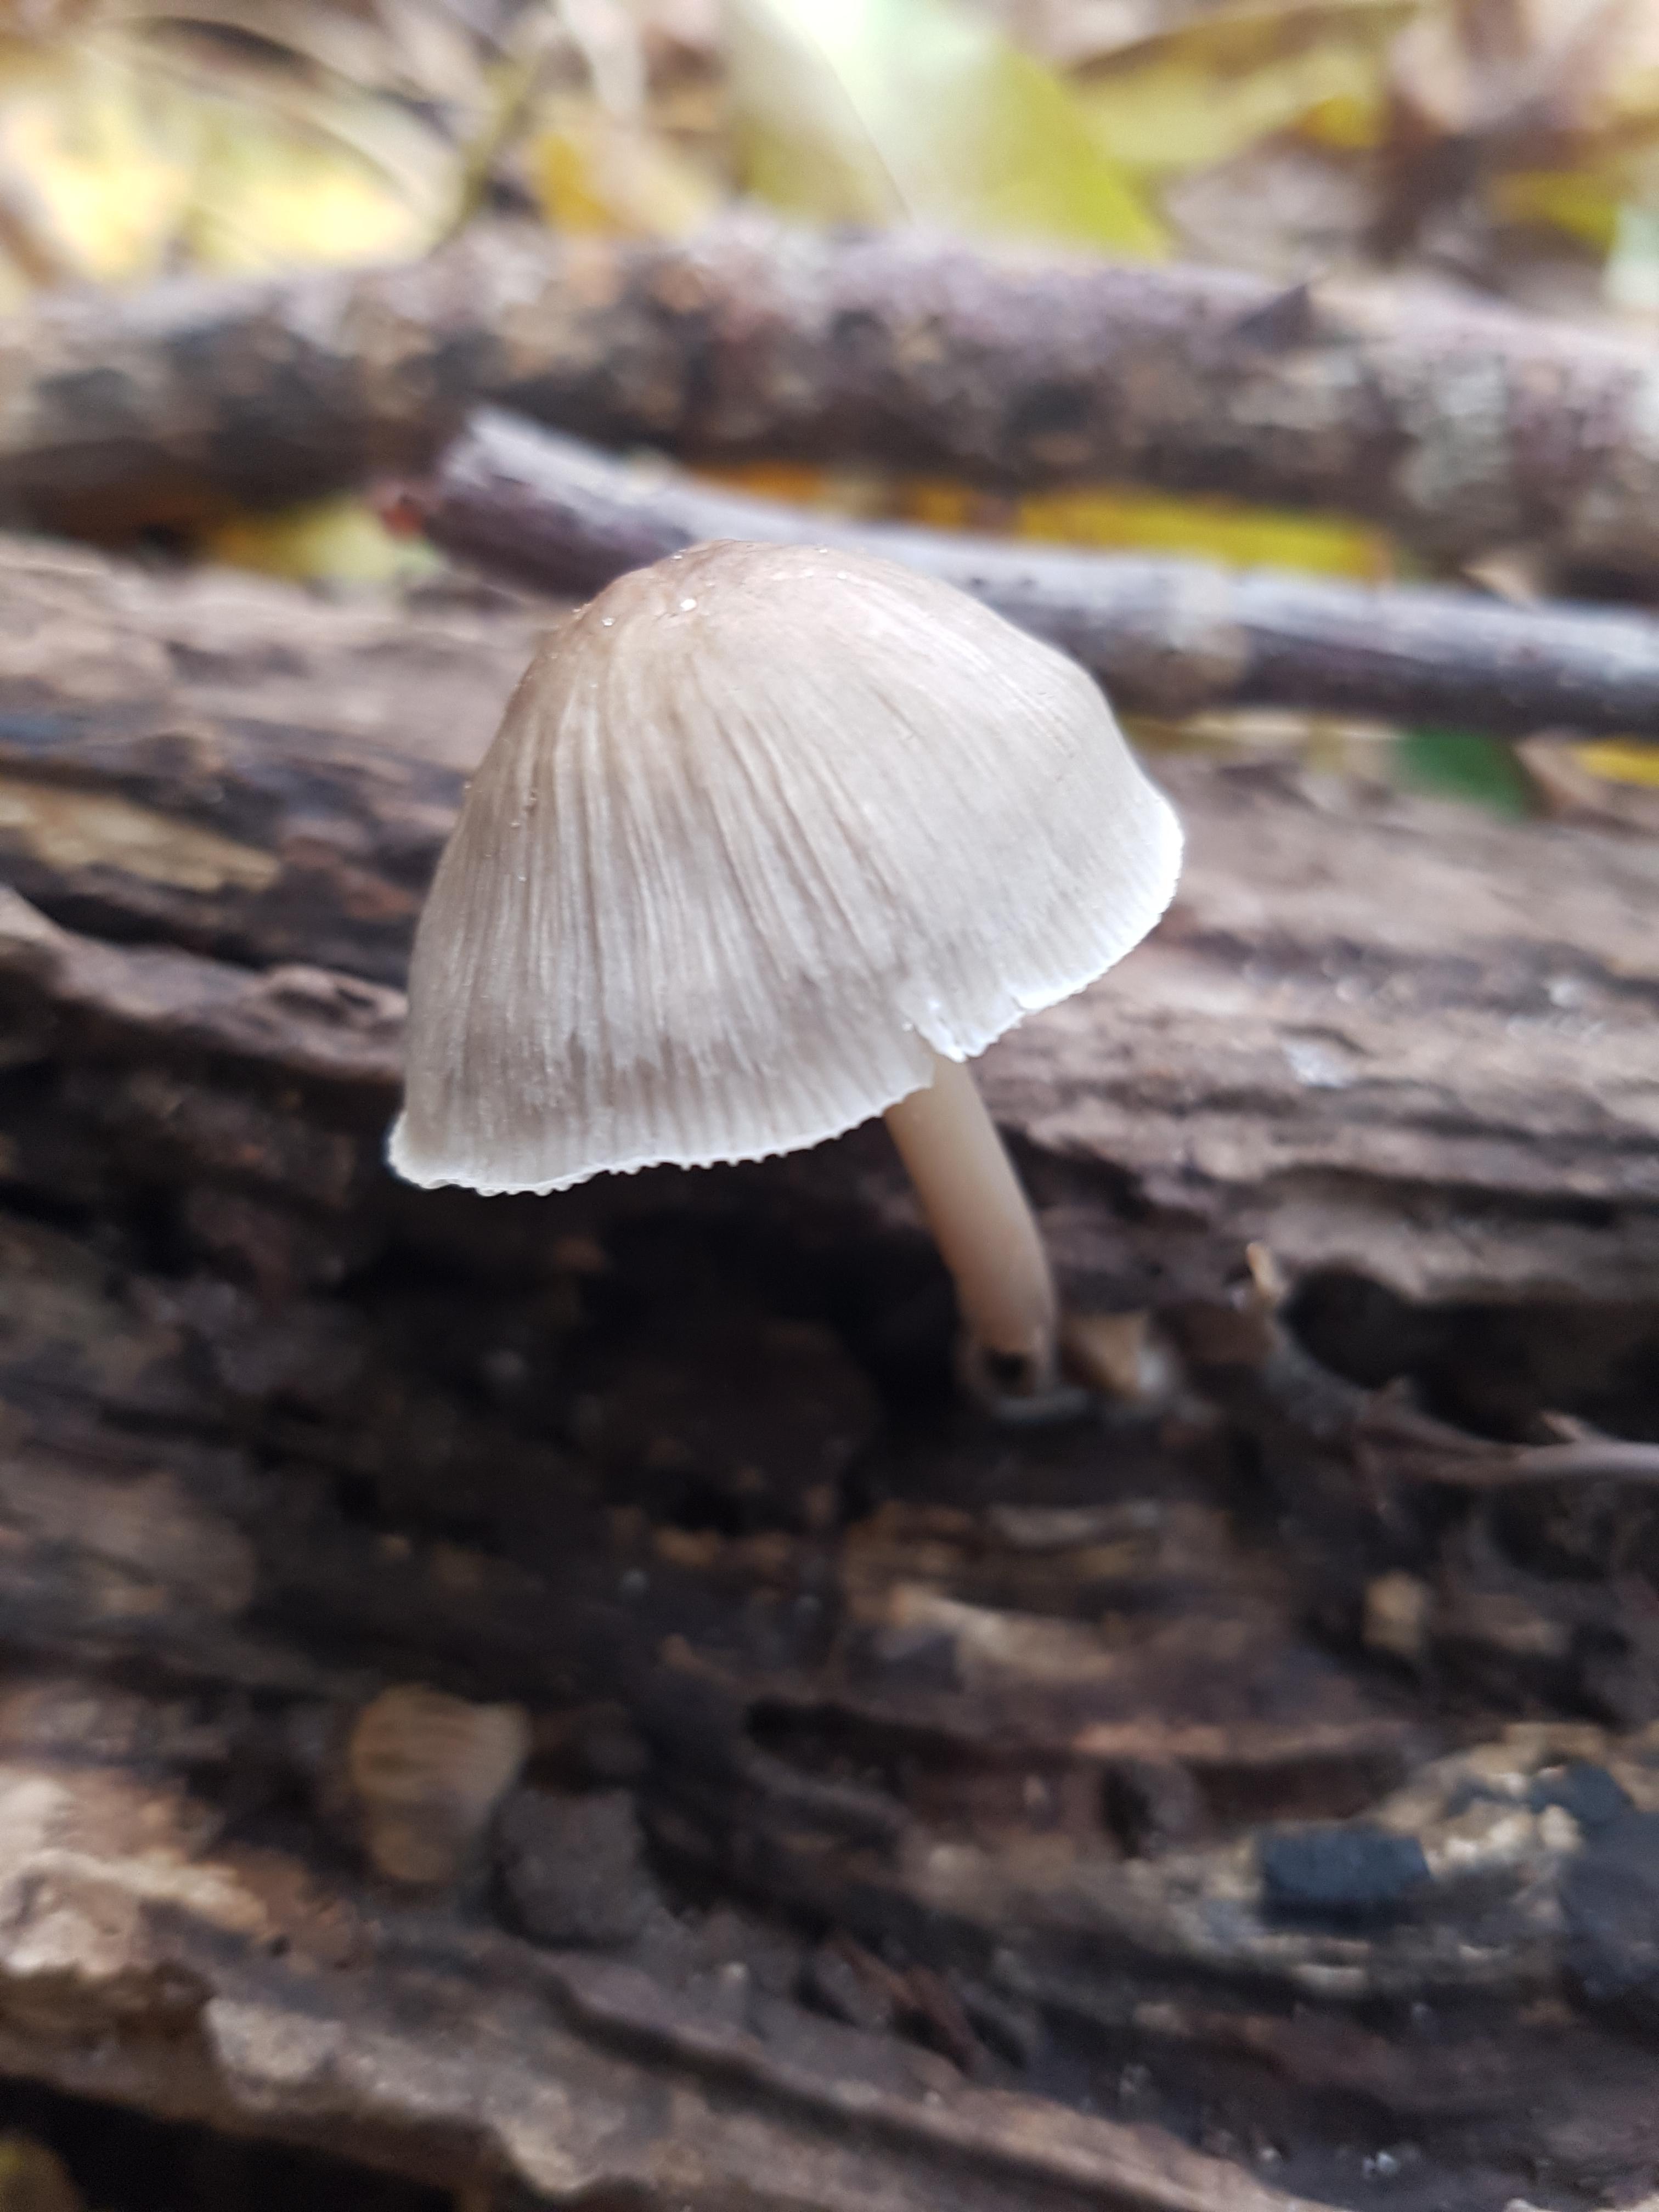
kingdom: Fungi
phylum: Basidiomycota
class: Agaricomycetes
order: Agaricales
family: Mycenaceae
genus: Mycena
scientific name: Mycena galericulata
